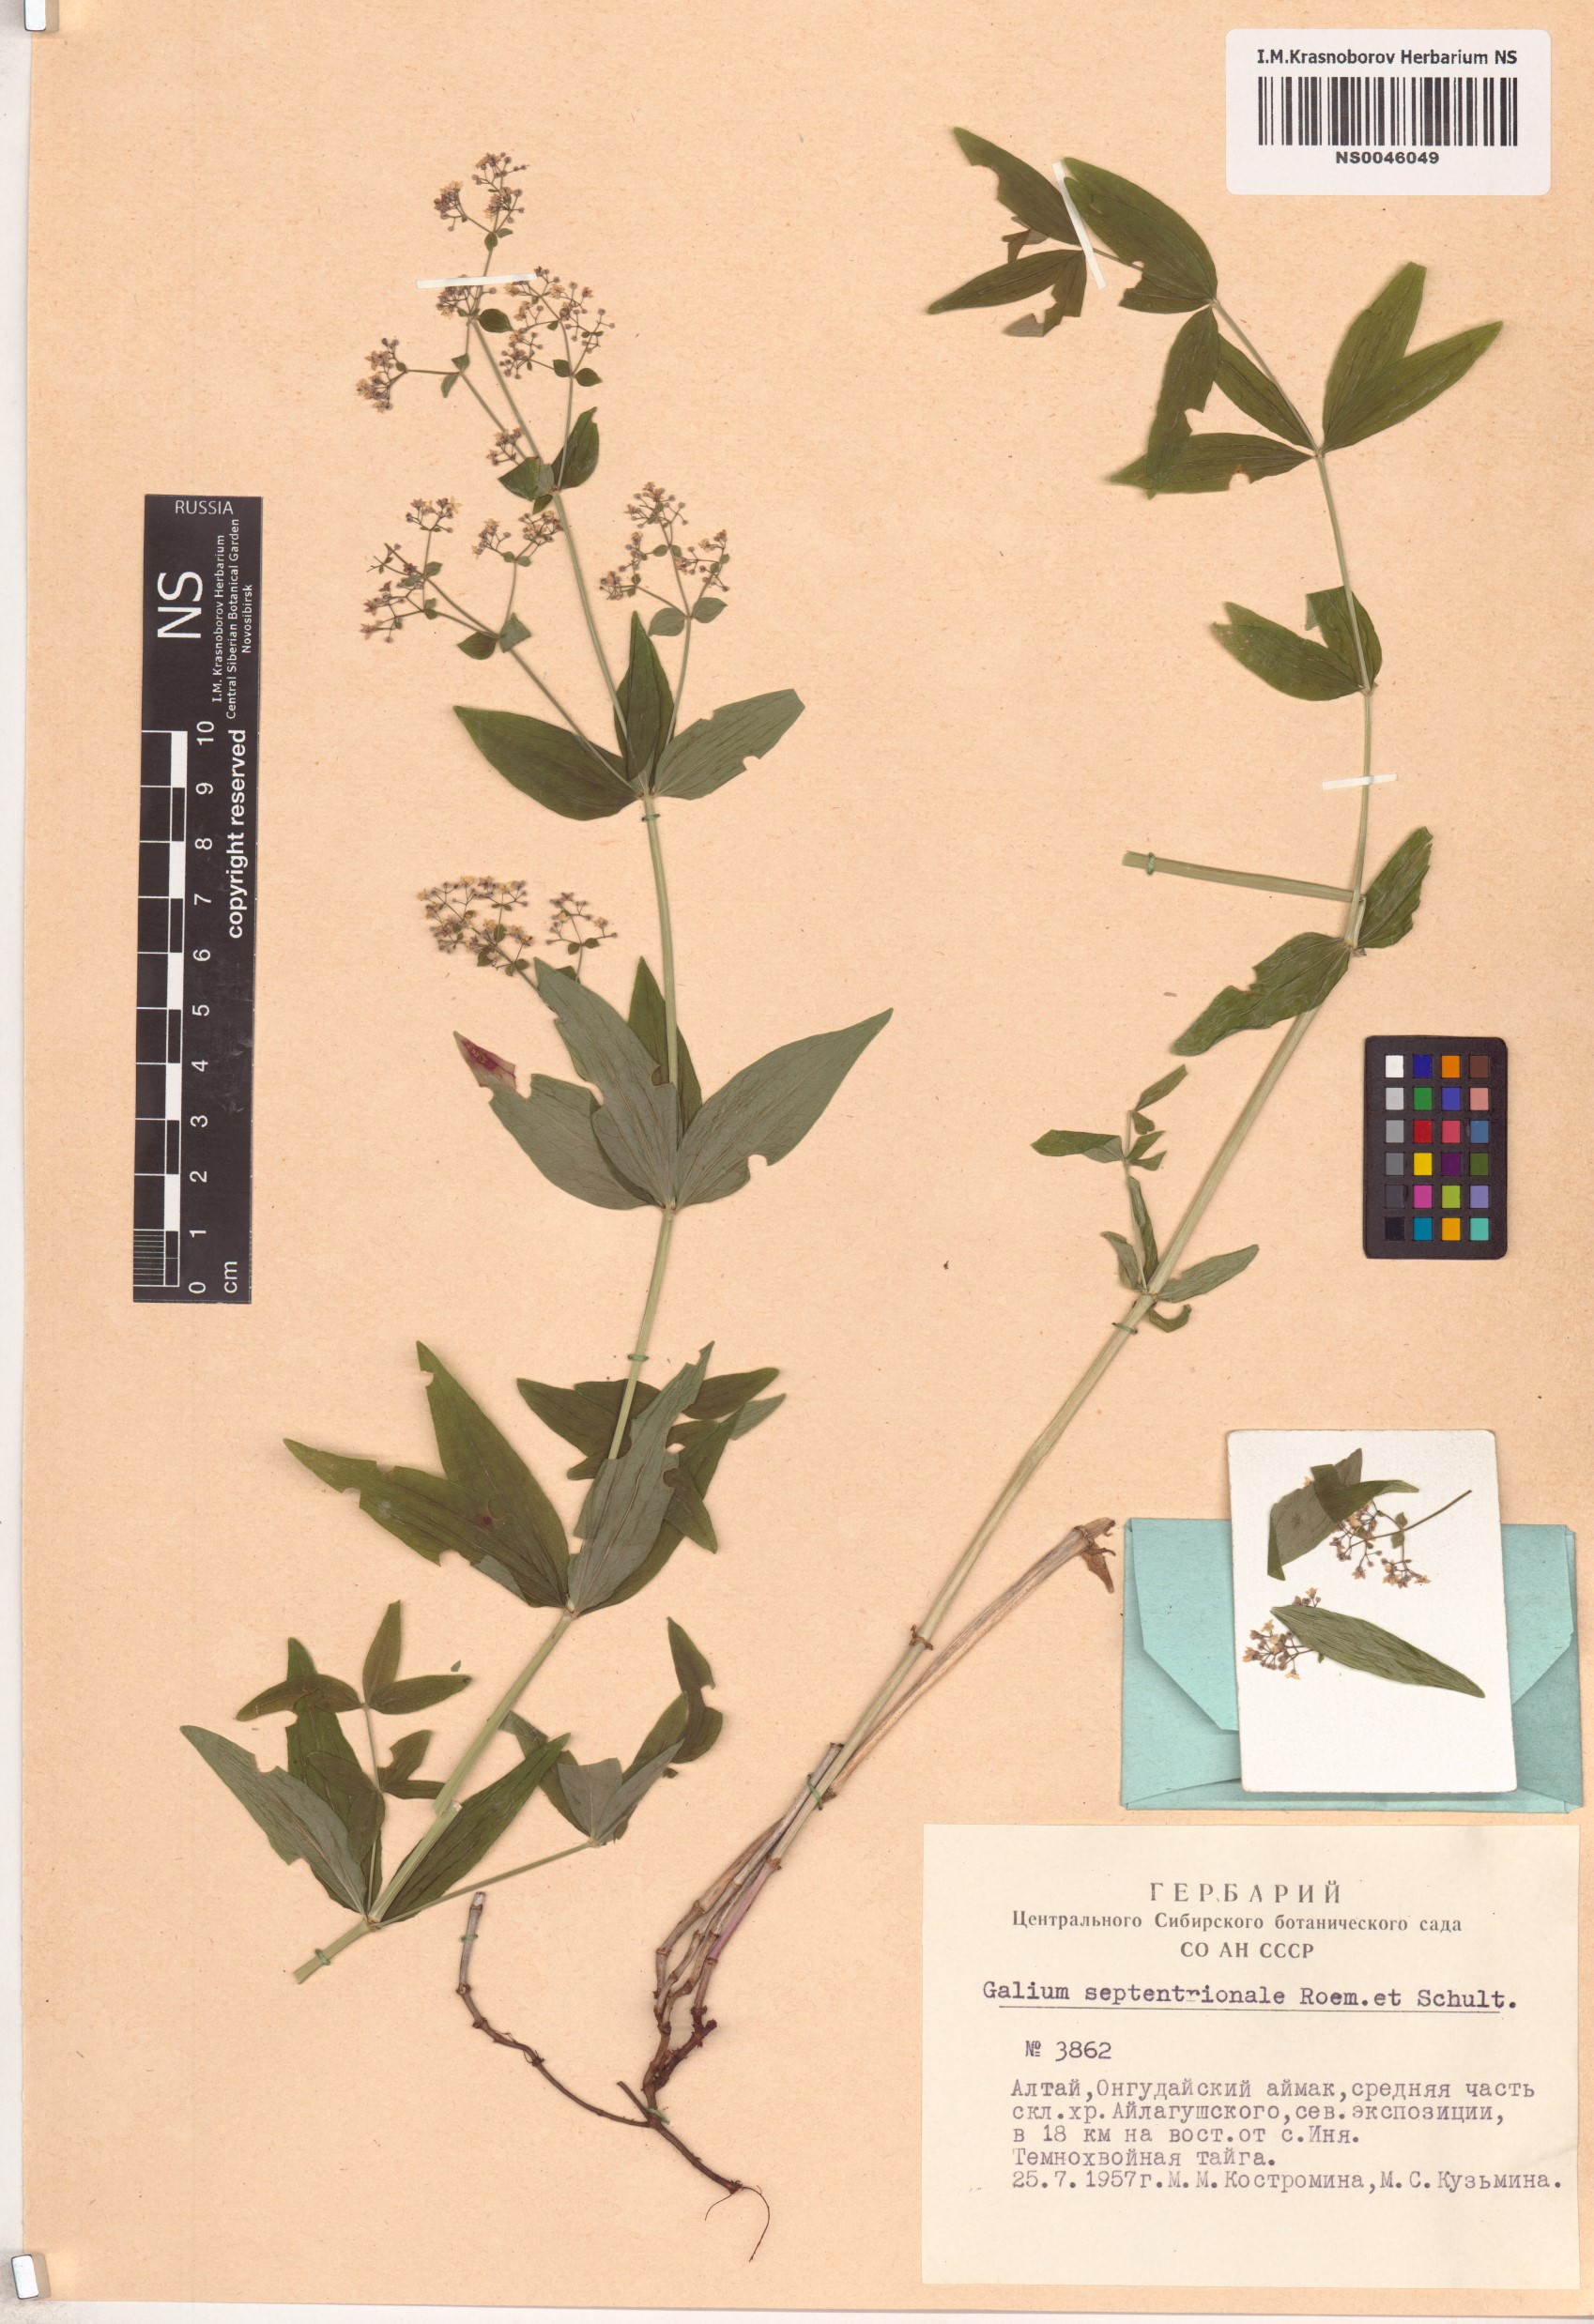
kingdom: Plantae
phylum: Tracheophyta
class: Magnoliopsida
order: Gentianales
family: Rubiaceae
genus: Galium
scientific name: Galium boreale
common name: Northern bedstraw
